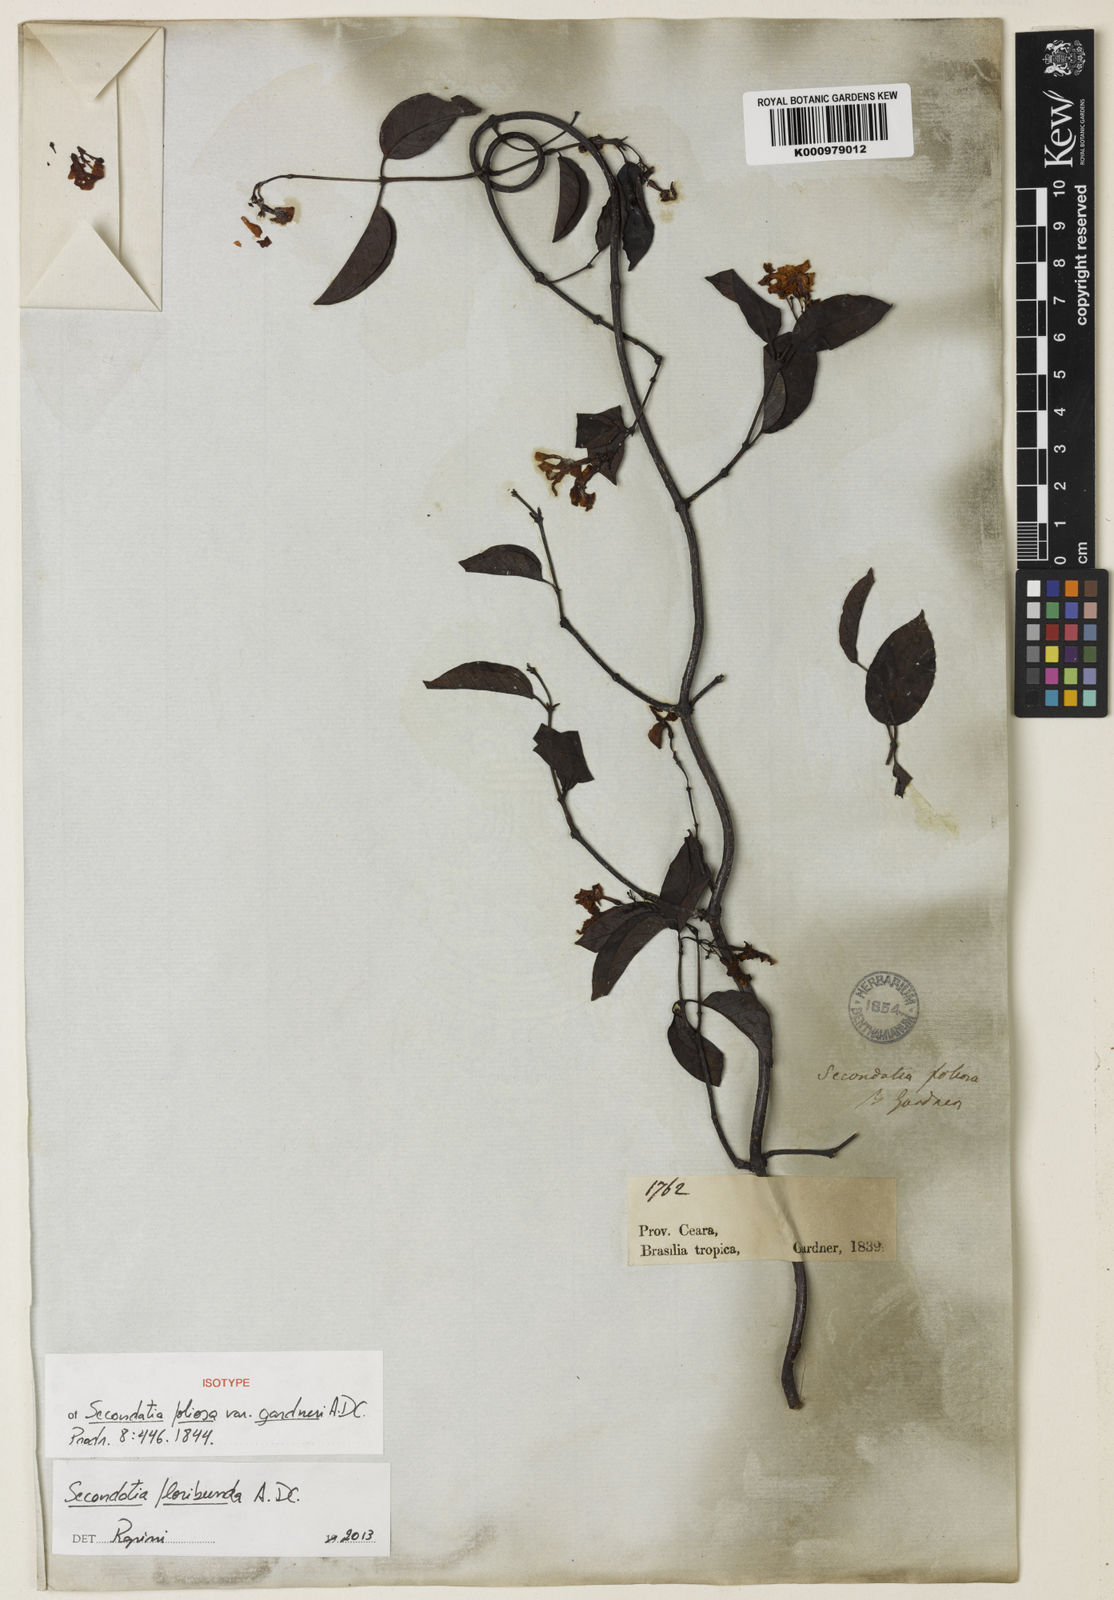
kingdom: Plantae
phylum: Tracheophyta
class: Magnoliopsida
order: Gentianales
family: Apocynaceae
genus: Secondatia
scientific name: Secondatia floribunda
